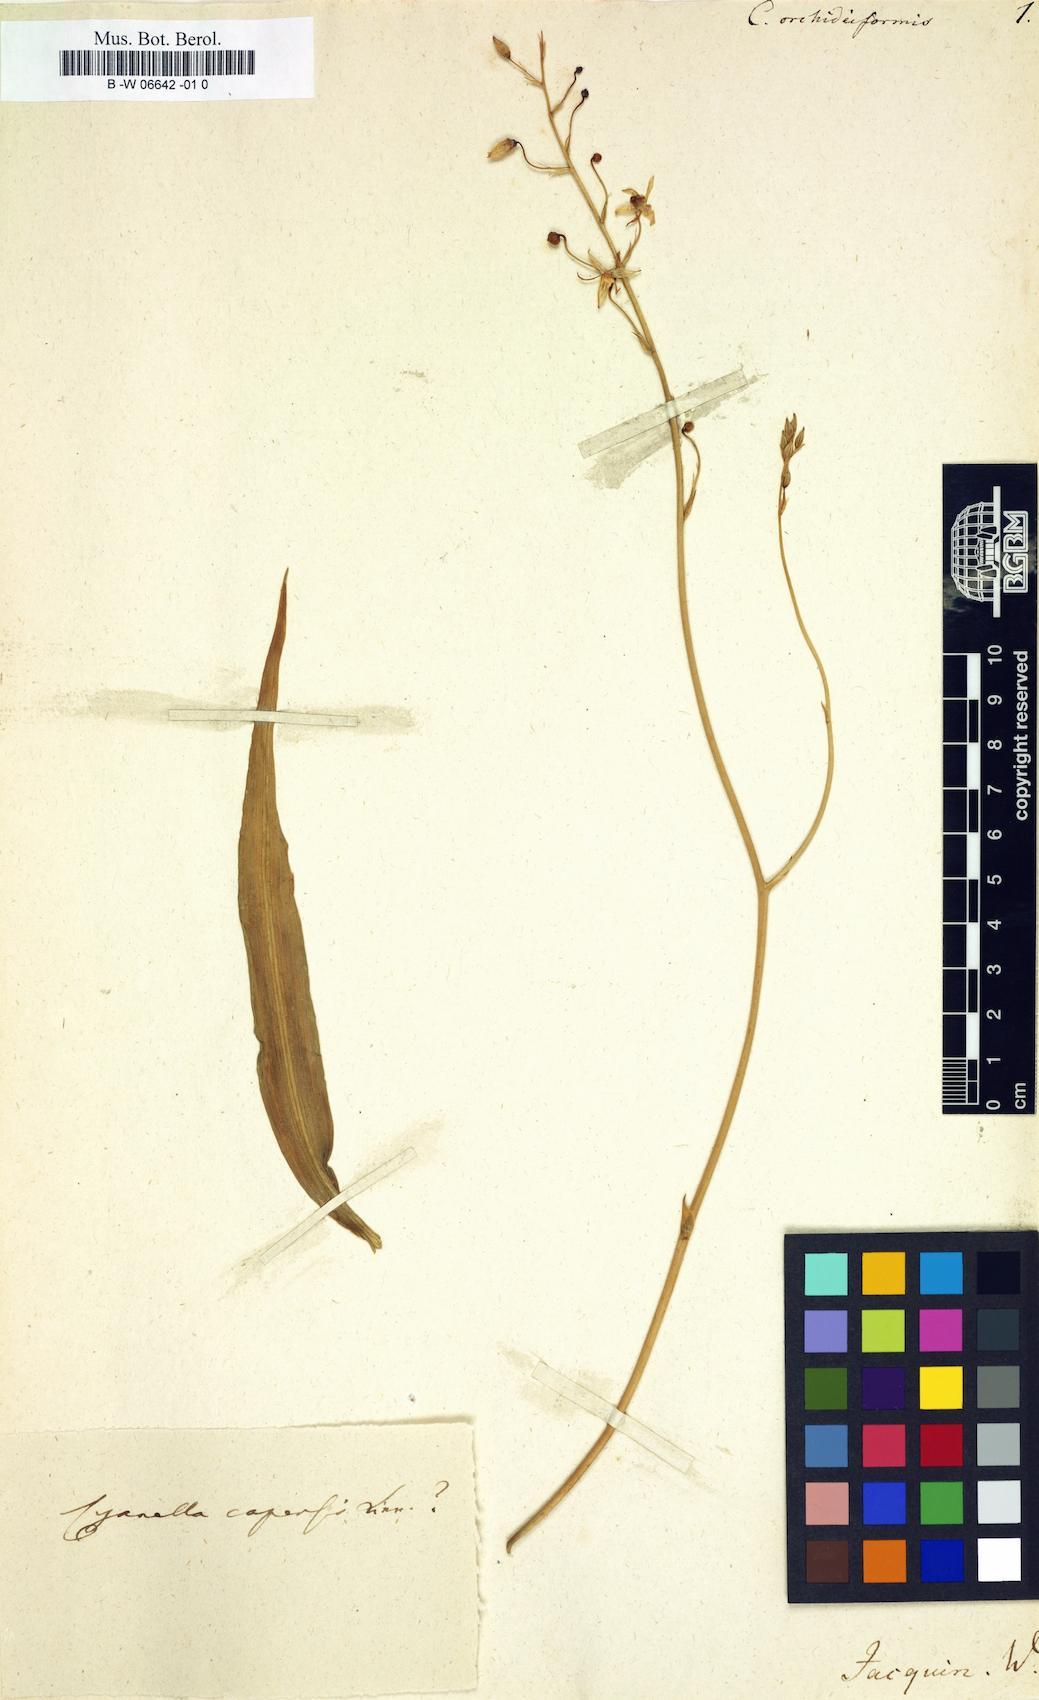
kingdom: Plantae
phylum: Tracheophyta
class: Liliopsida
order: Asparagales
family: Tecophilaeaceae
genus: Cyanella
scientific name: Cyanella orchidiformis
